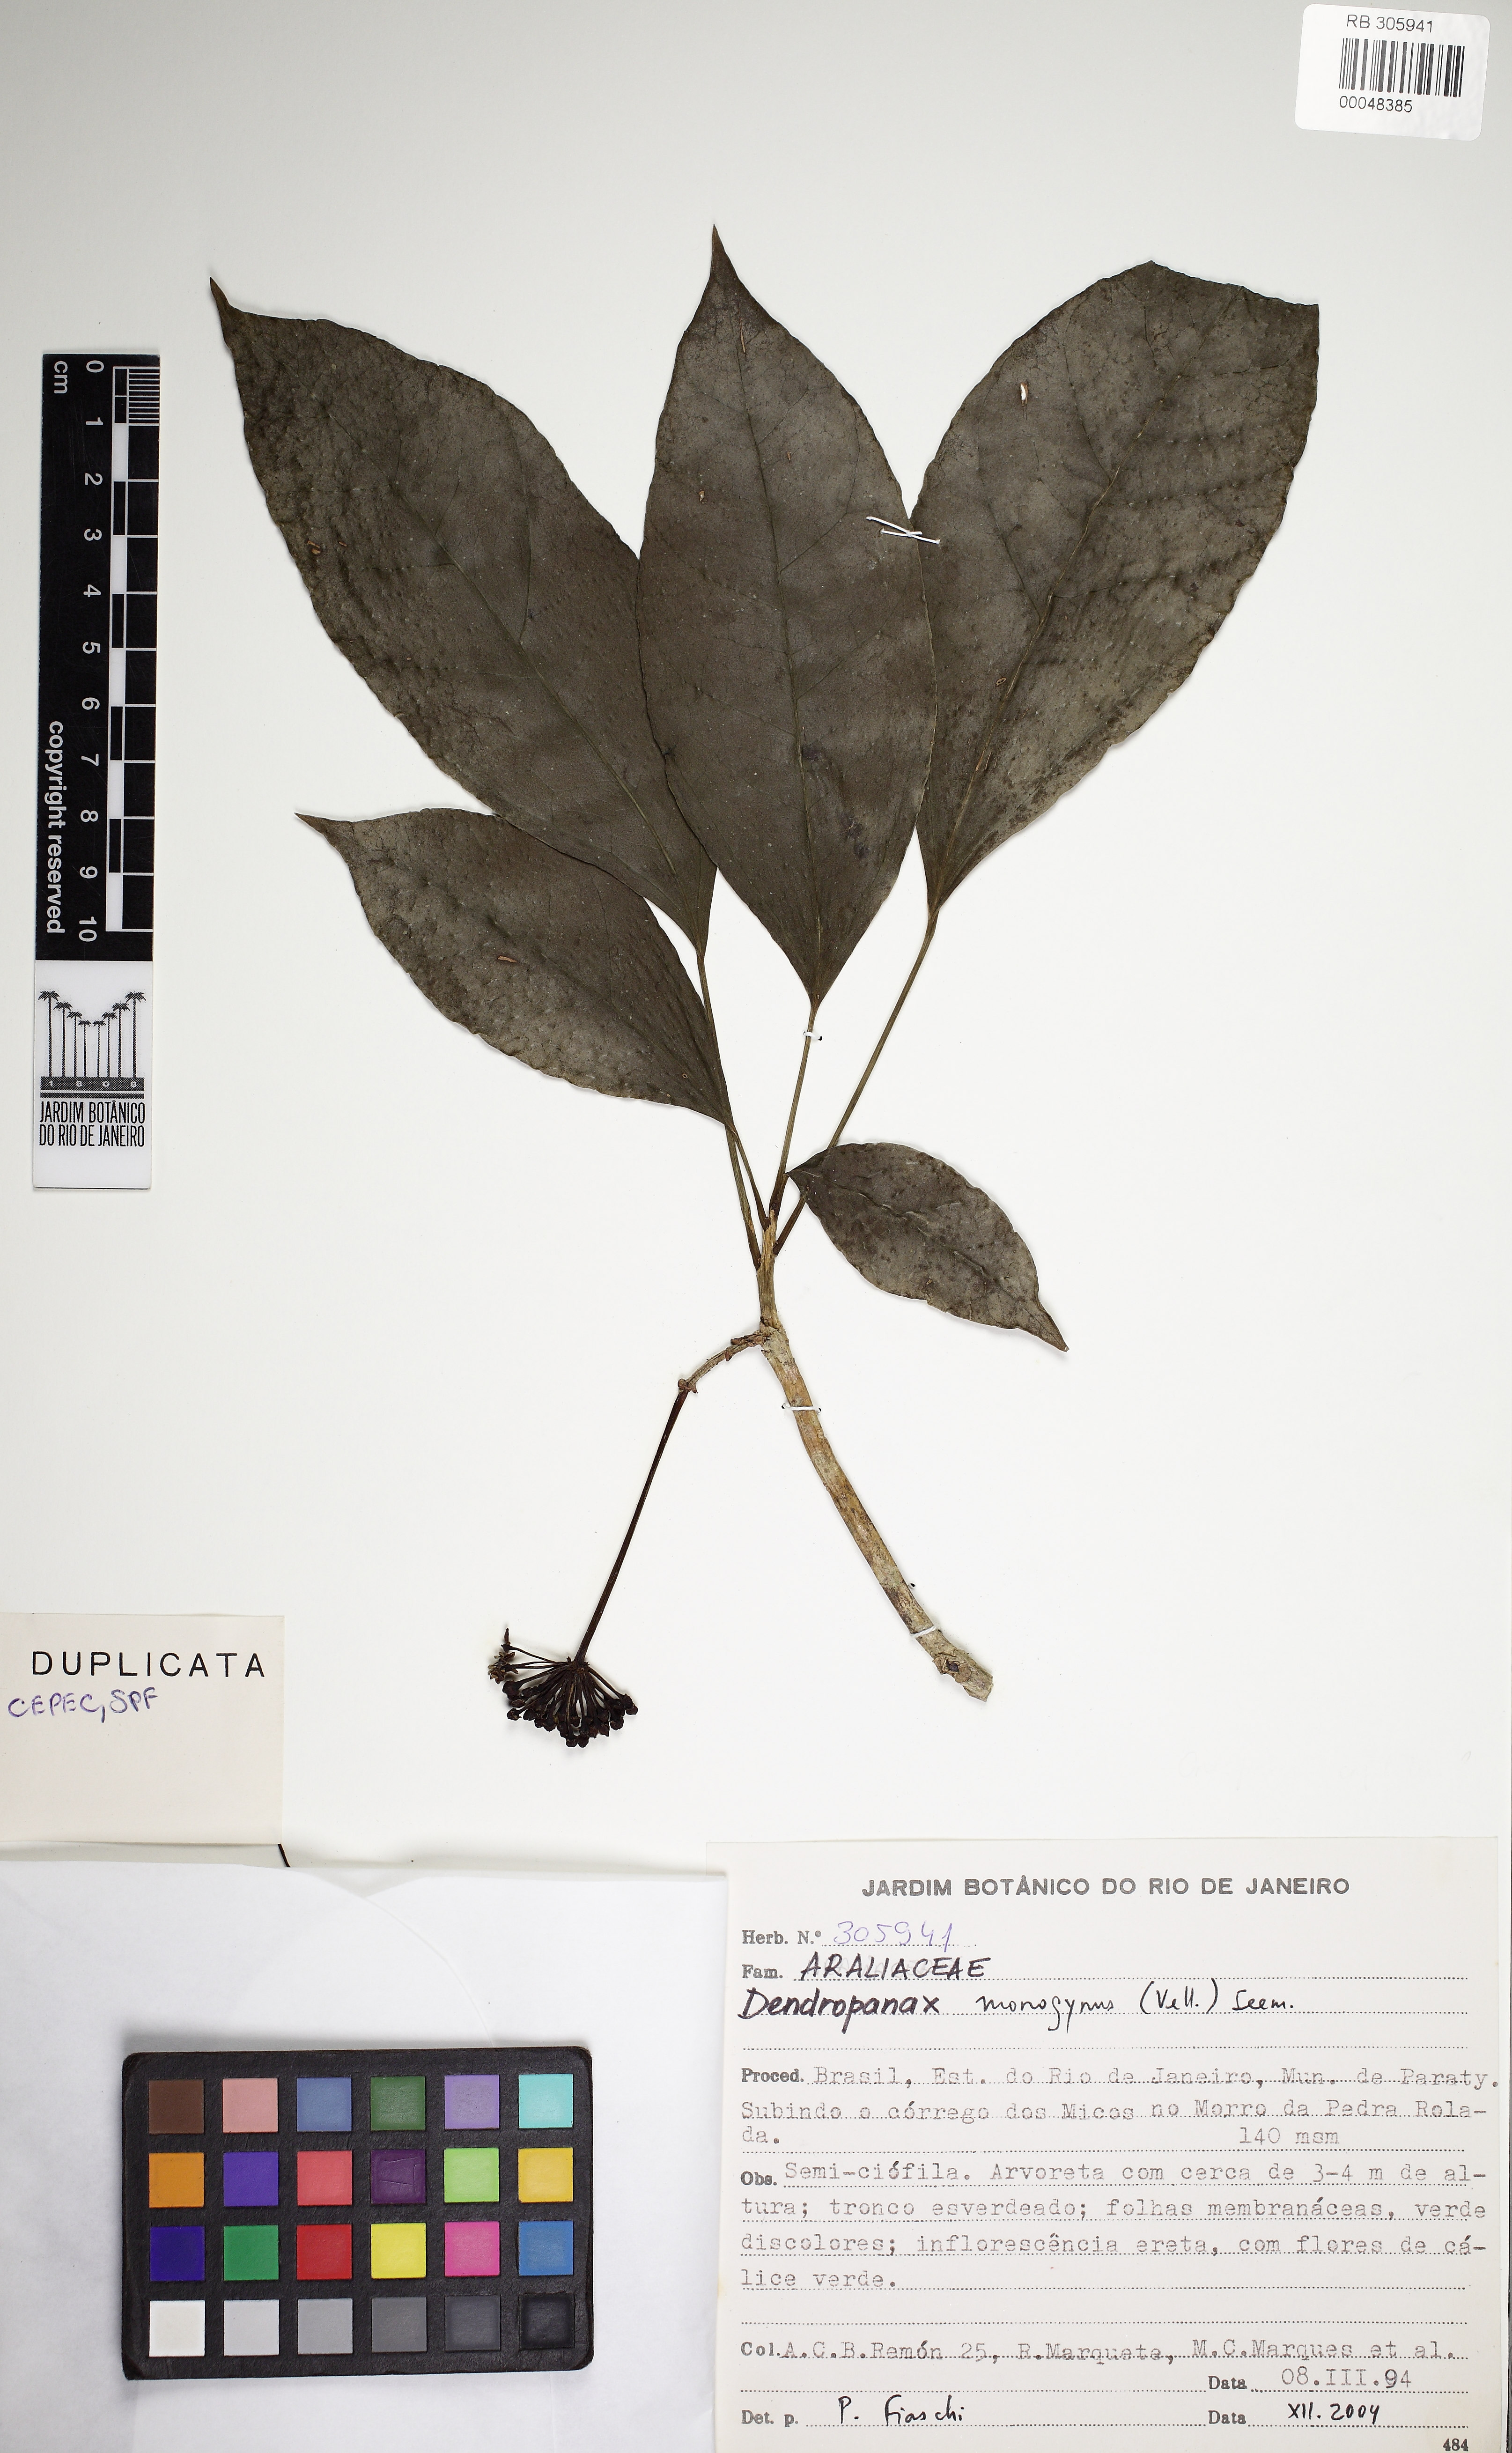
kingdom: Plantae
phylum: Tracheophyta
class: Magnoliopsida
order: Apiales
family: Araliaceae
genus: Dendropanax
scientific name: Dendropanax monogynus
